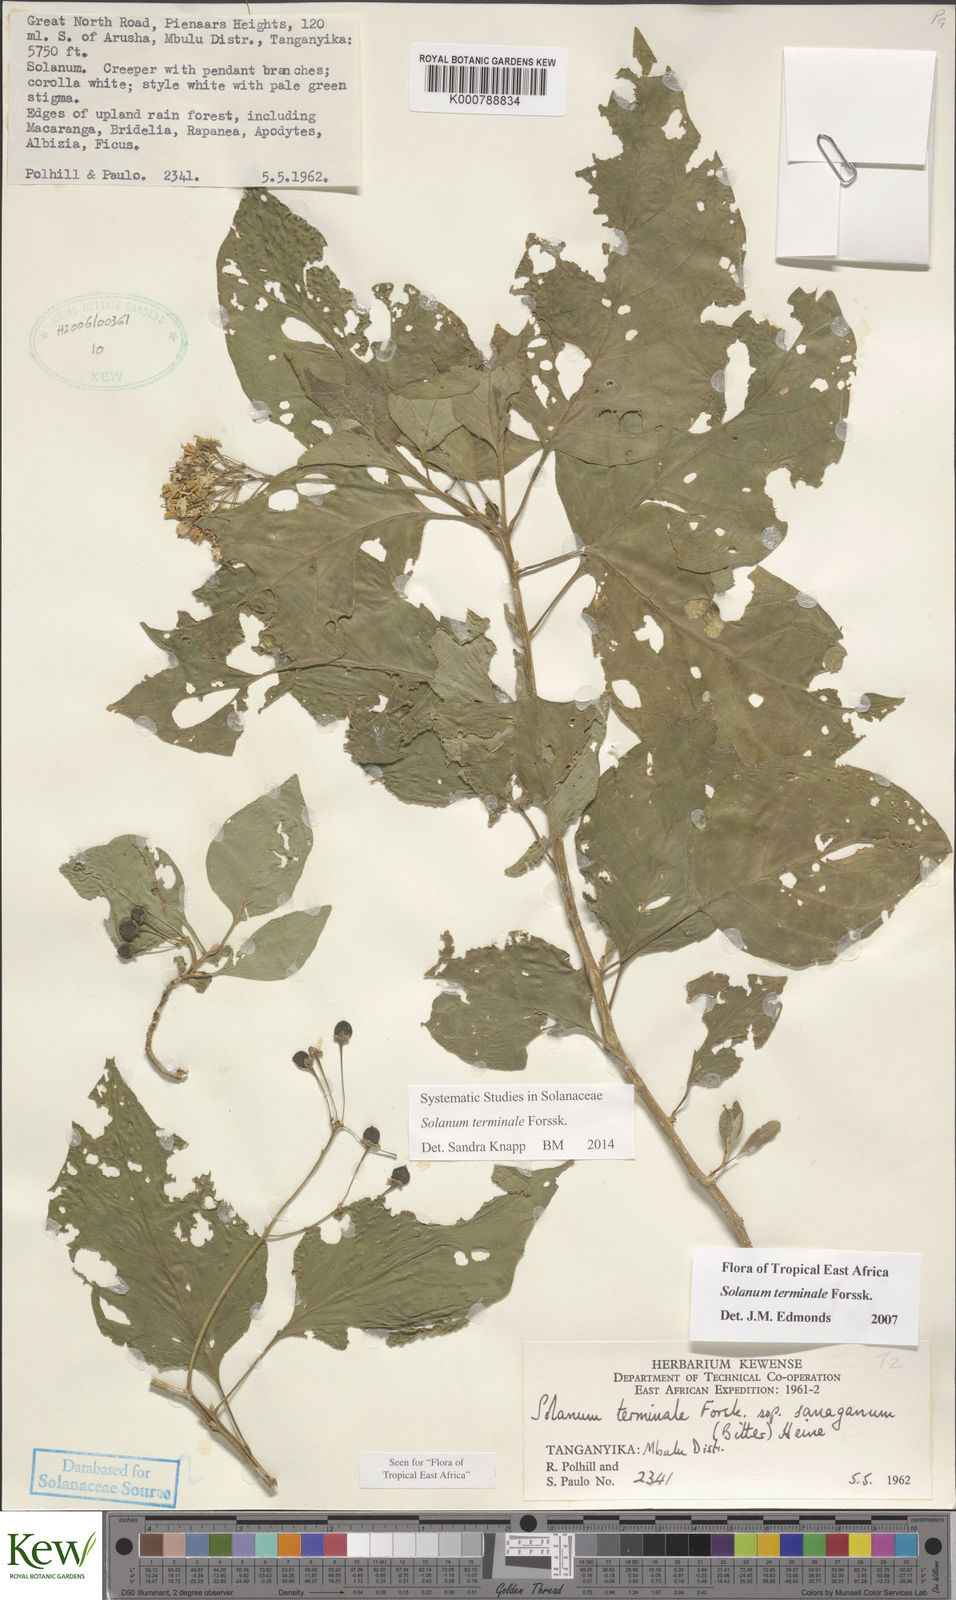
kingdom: Plantae
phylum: Tracheophyta
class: Magnoliopsida
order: Solanales
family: Solanaceae
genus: Solanum
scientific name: Solanum terminale
